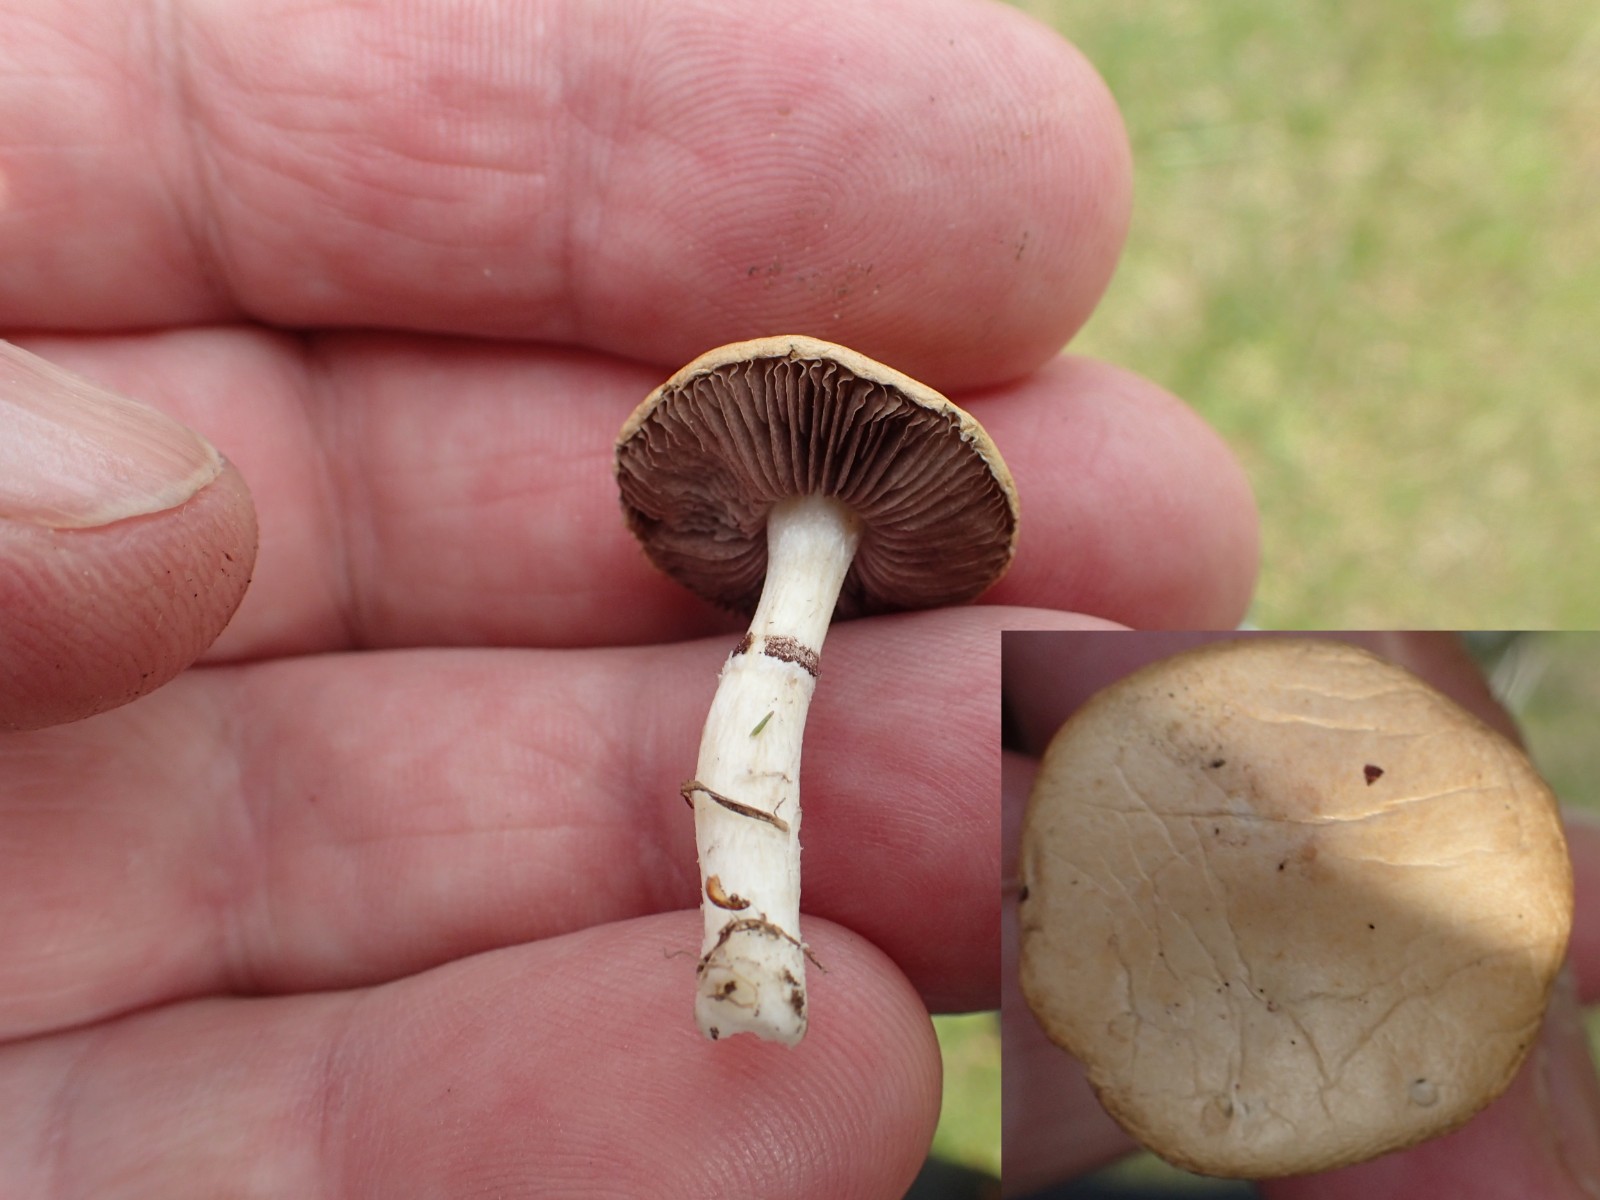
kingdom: Fungi
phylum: Basidiomycota
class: Agaricomycetes
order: Agaricales
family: Hymenogastraceae
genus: Psilocybe
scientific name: Psilocybe coronilla
